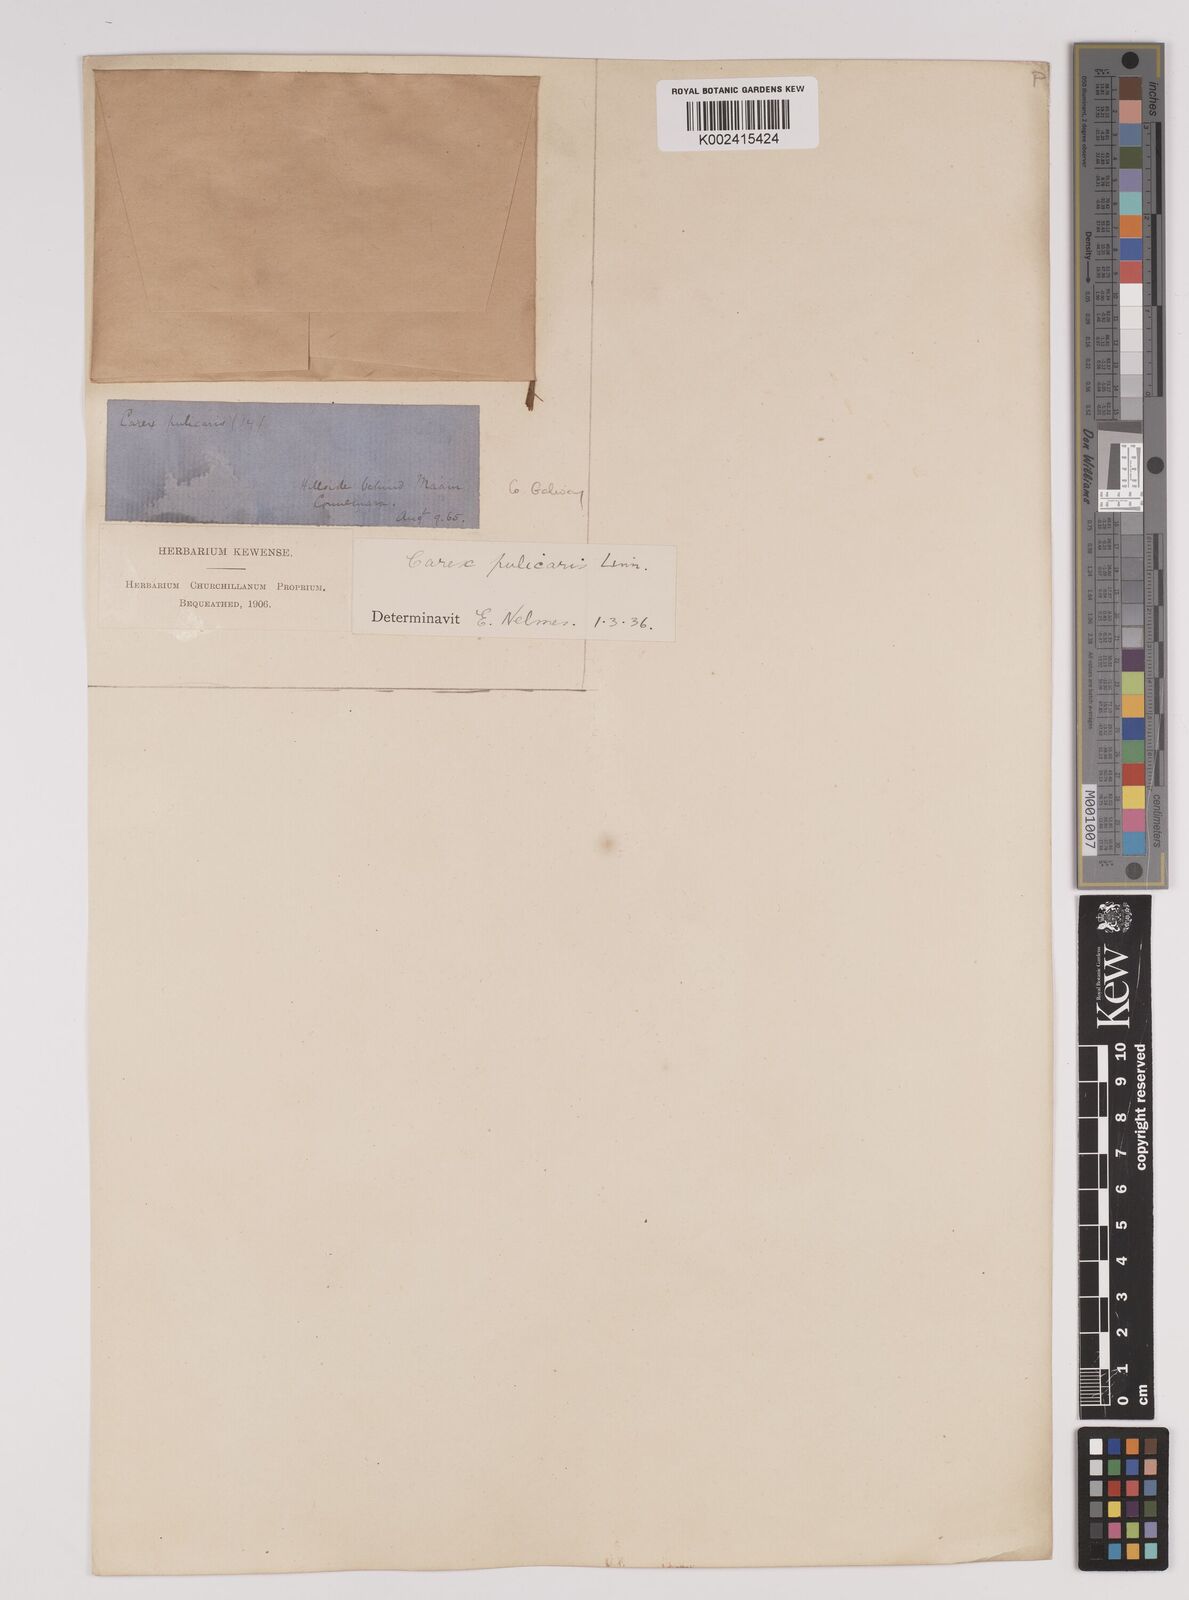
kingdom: Plantae
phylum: Tracheophyta
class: Liliopsida
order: Poales
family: Cyperaceae
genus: Carex
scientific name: Carex pulicaris
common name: Flea sedge
